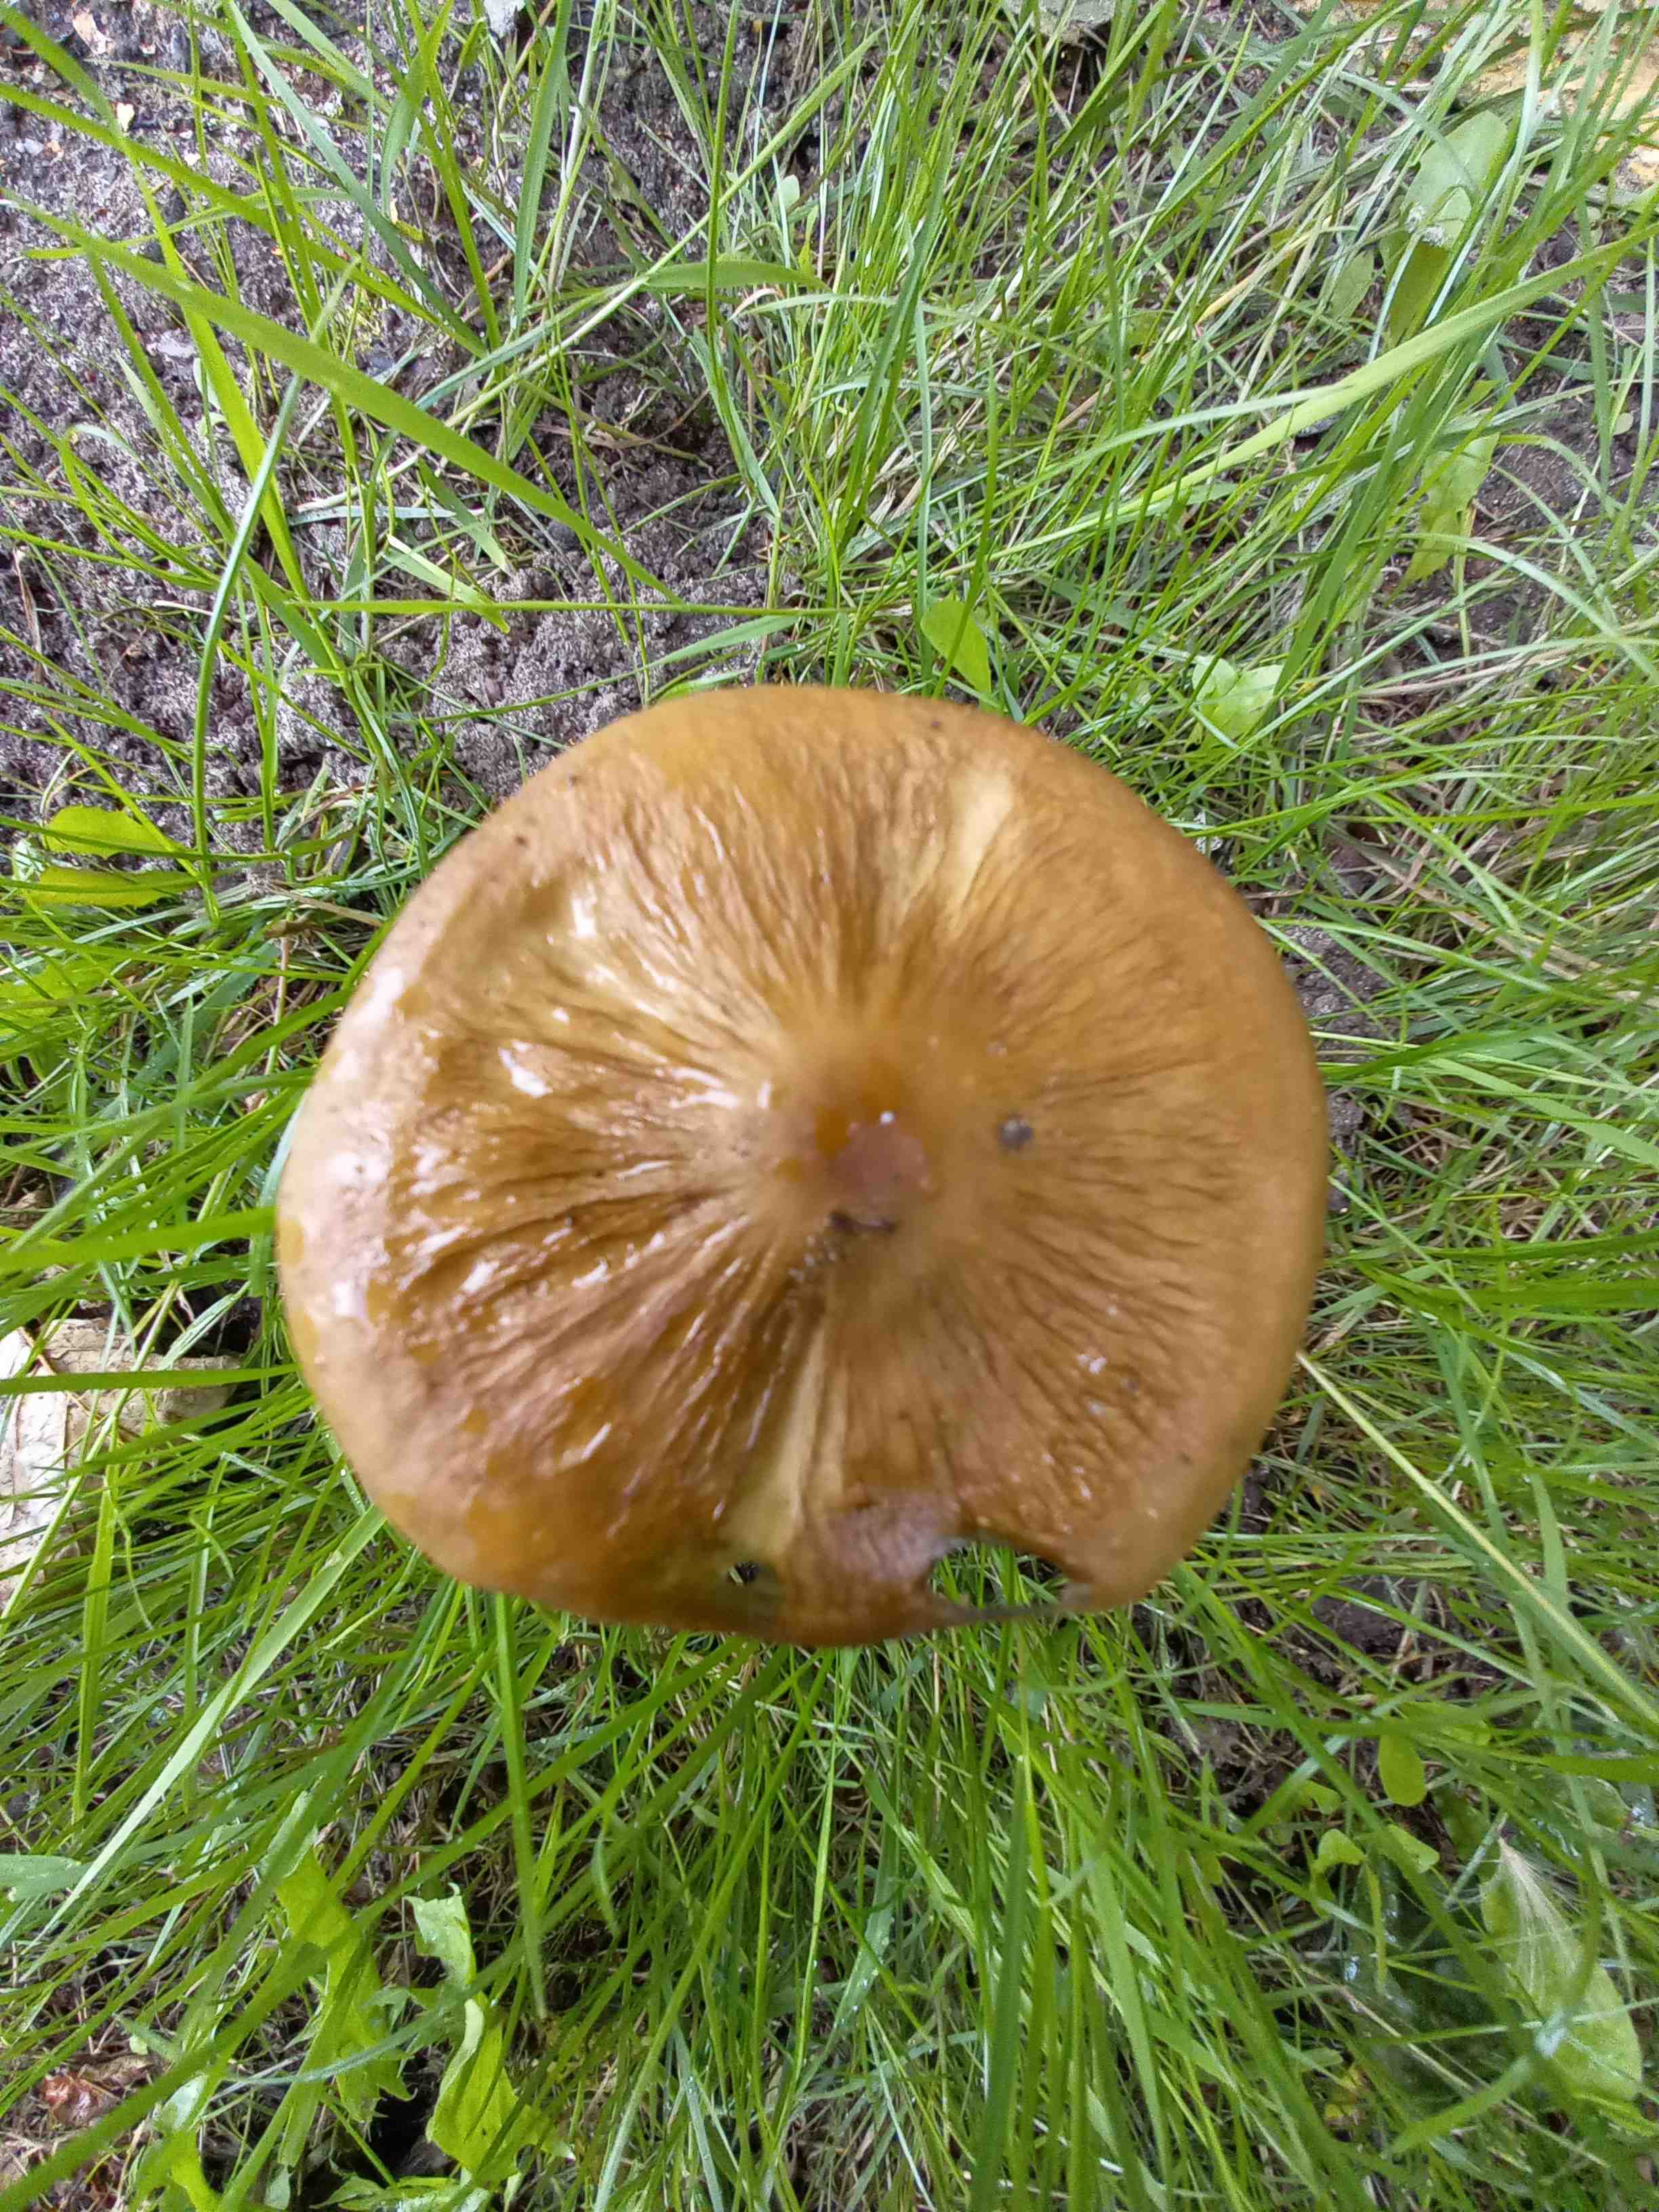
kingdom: Fungi
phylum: Basidiomycota
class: Agaricomycetes
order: Agaricales
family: Physalacriaceae
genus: Hymenopellis
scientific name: Hymenopellis radicata
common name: almindelig pælerodshat
